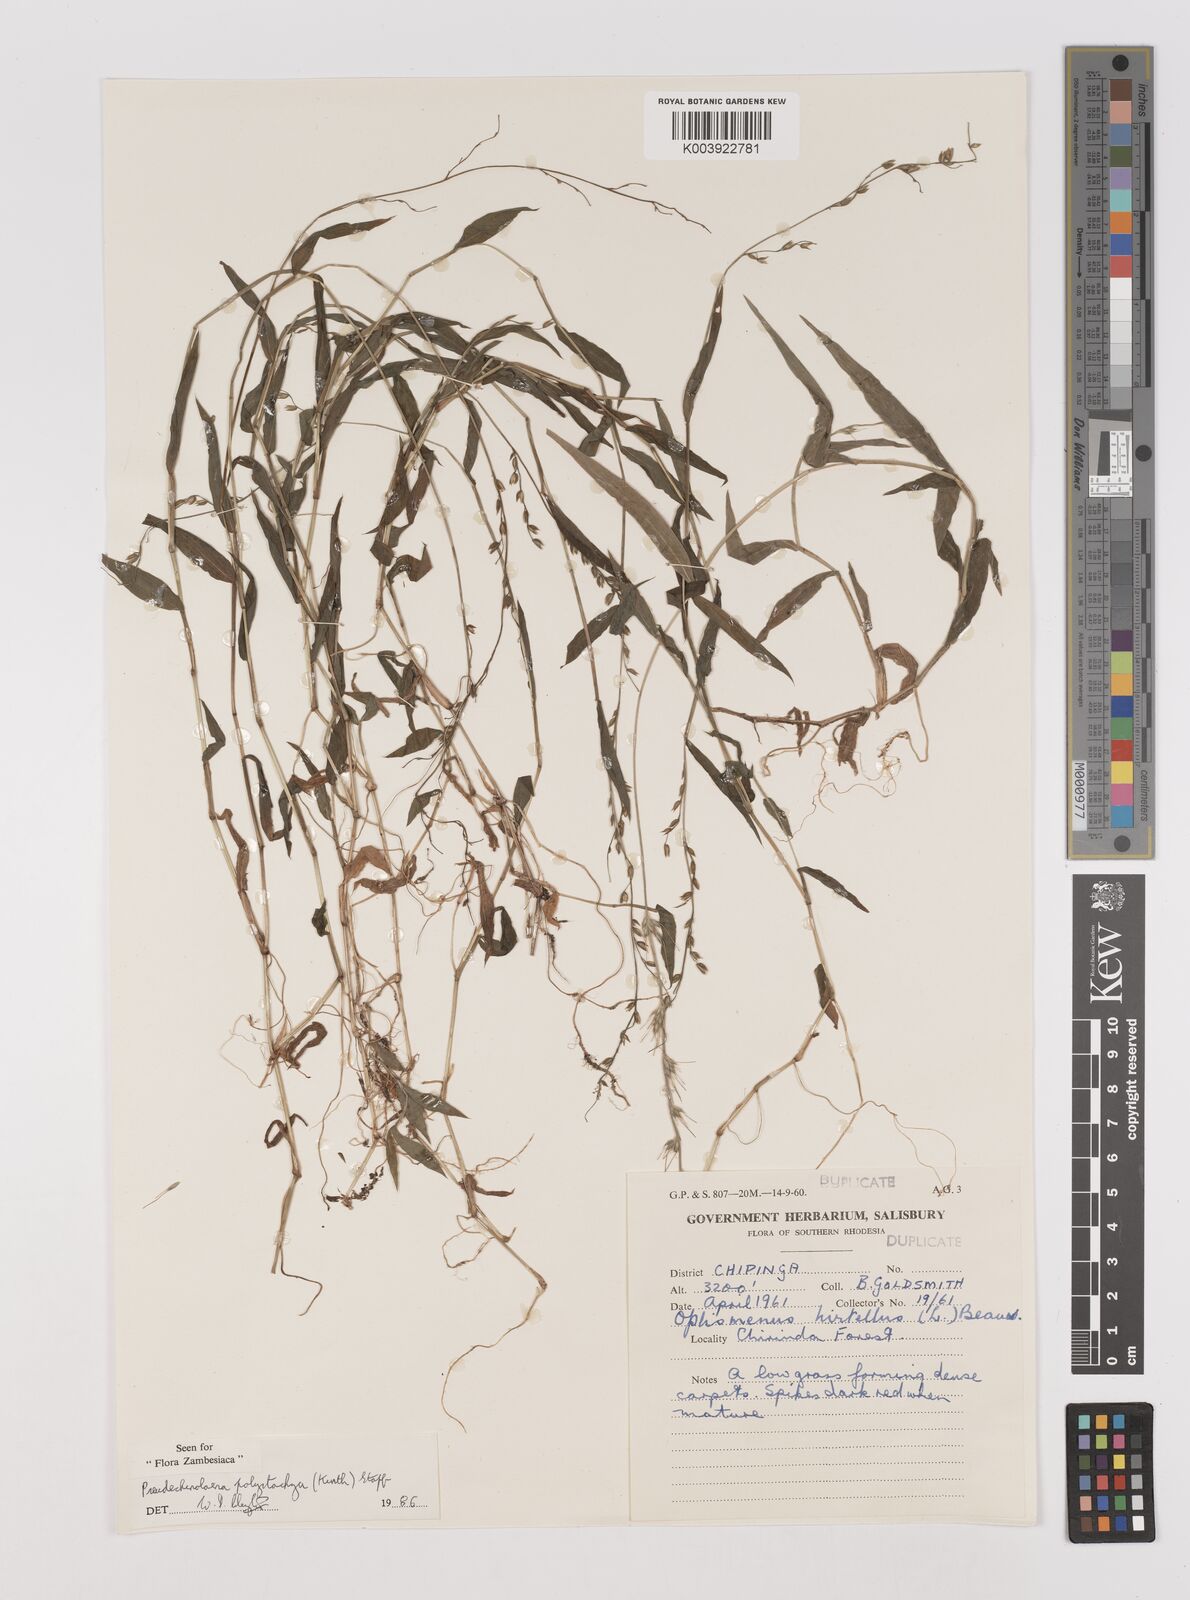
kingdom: Plantae
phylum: Tracheophyta
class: Liliopsida
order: Poales
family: Poaceae
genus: Pseudechinolaena
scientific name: Pseudechinolaena polystachya
